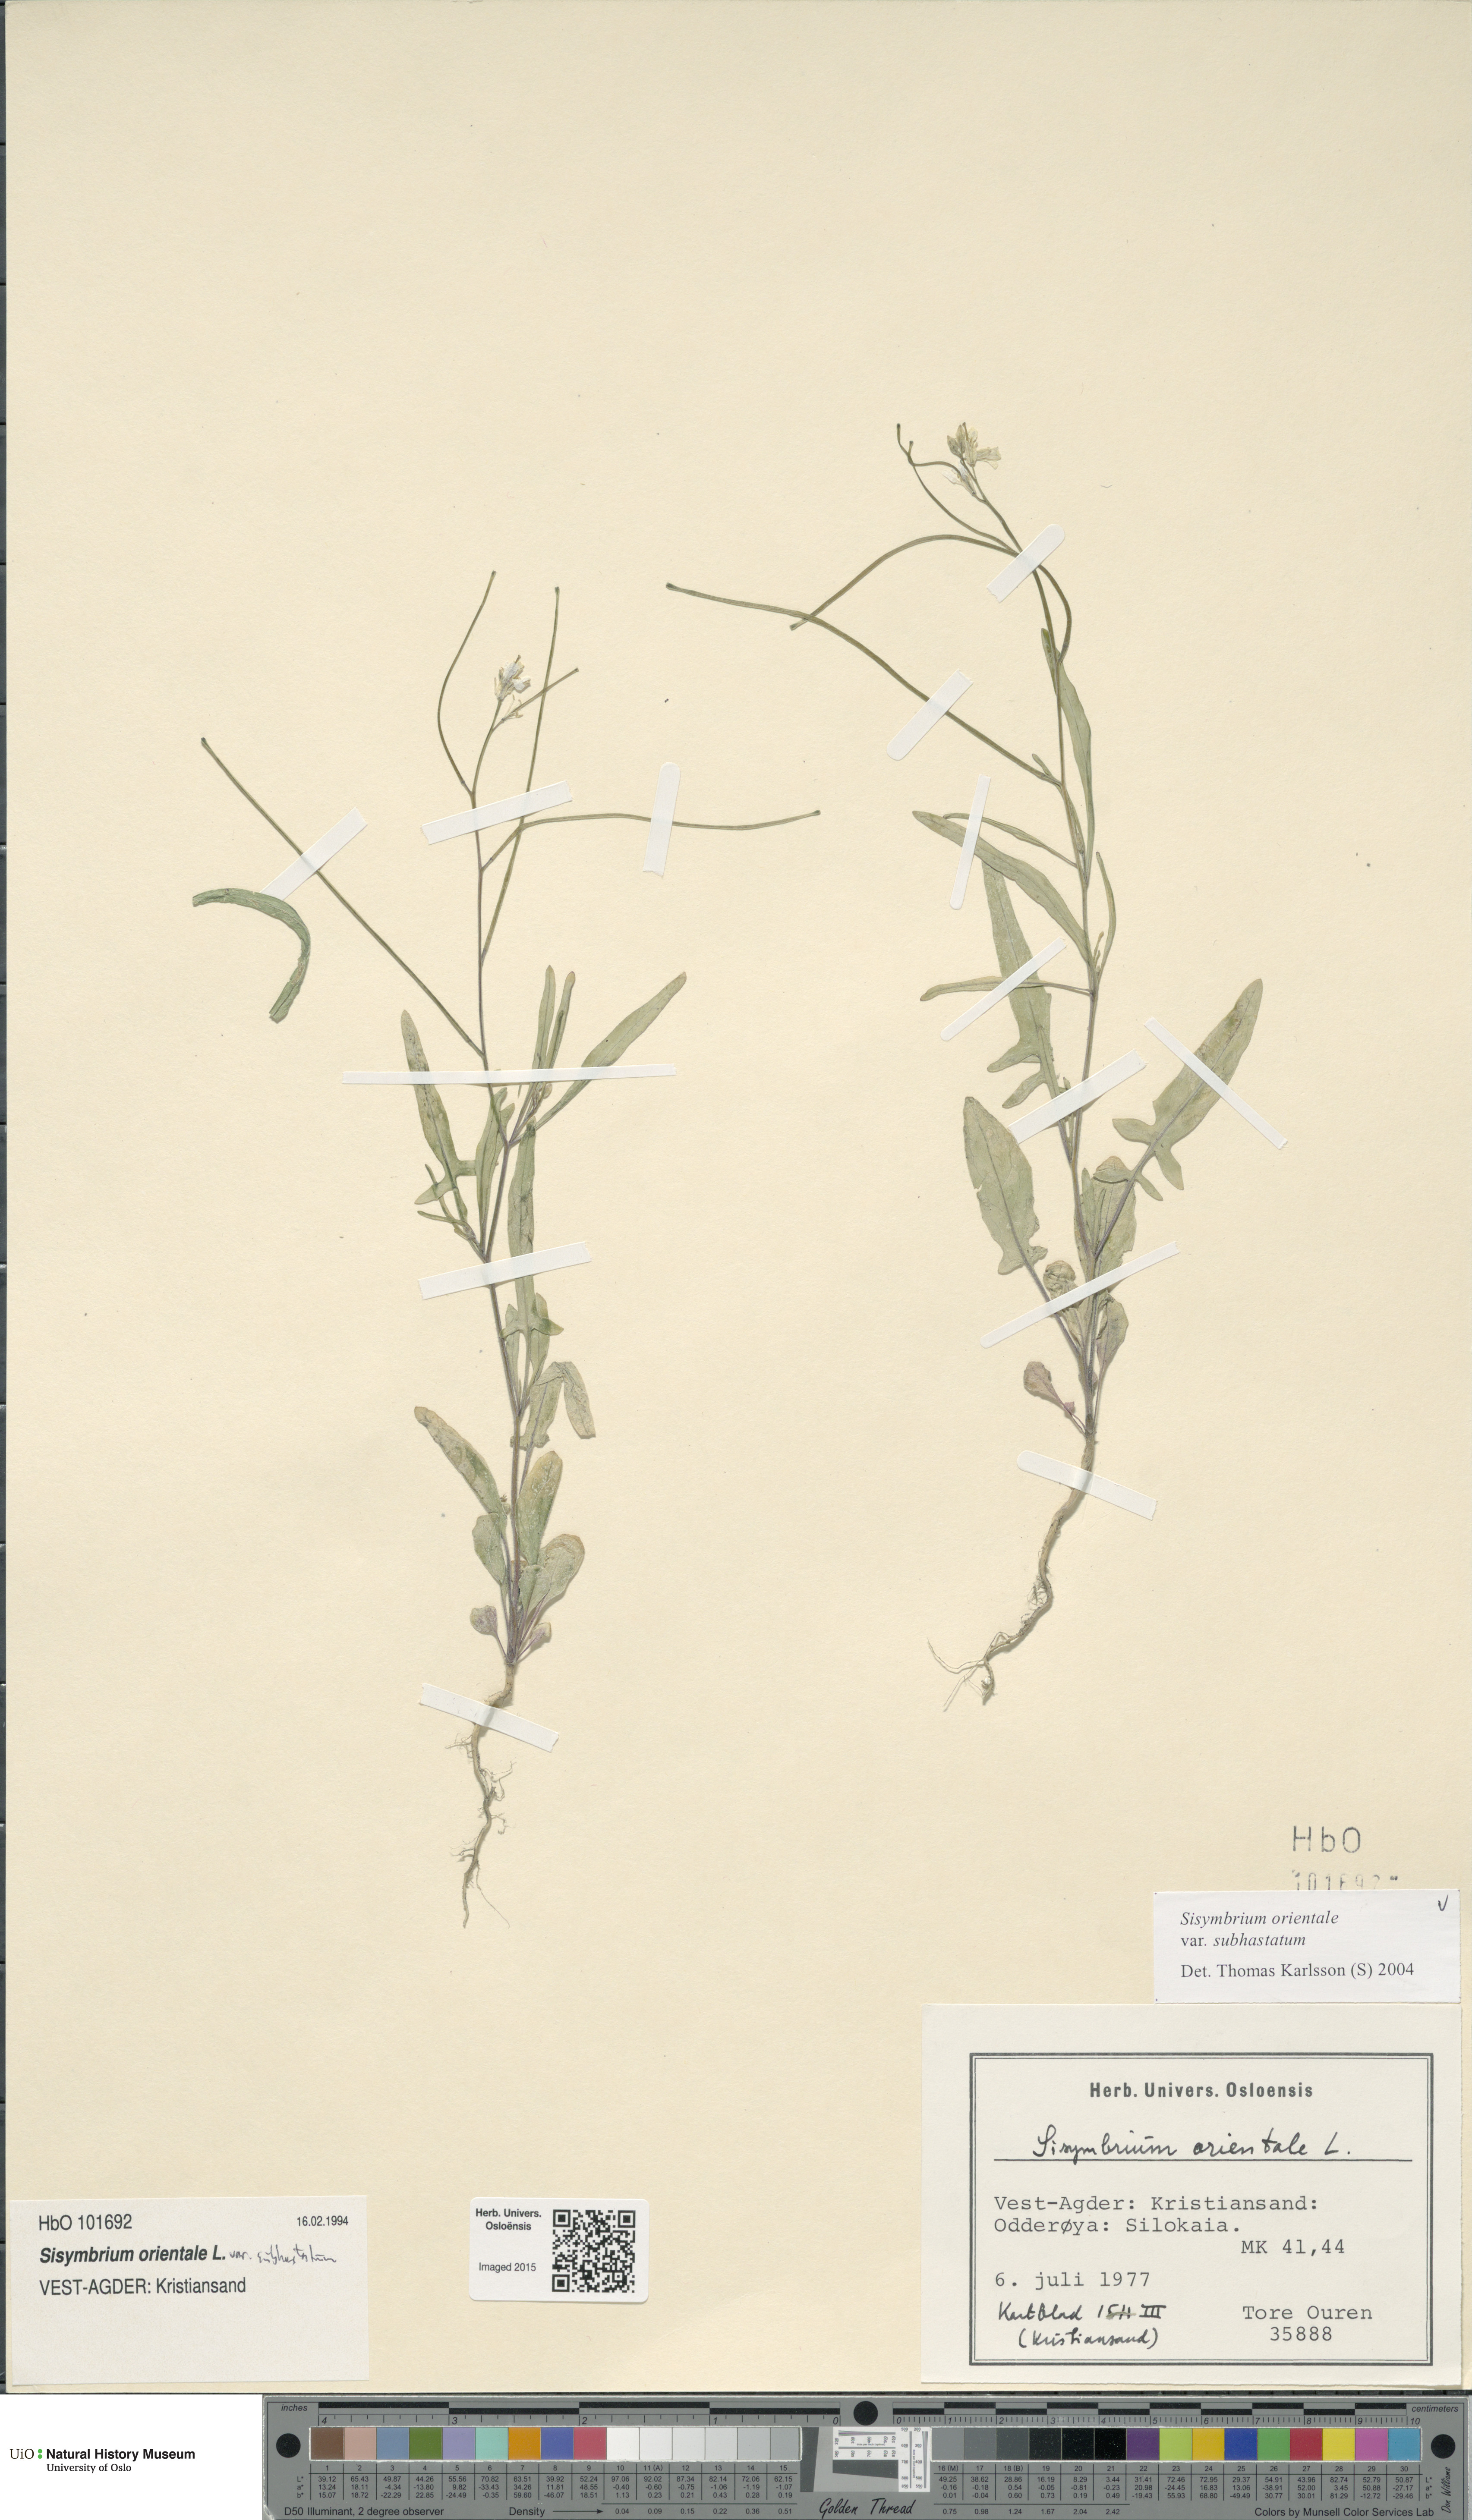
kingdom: Plantae
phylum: Tracheophyta
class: Magnoliopsida
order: Brassicales
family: Brassicaceae
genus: Sisymbrium
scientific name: Sisymbrium orientale
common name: Eastern rocket
